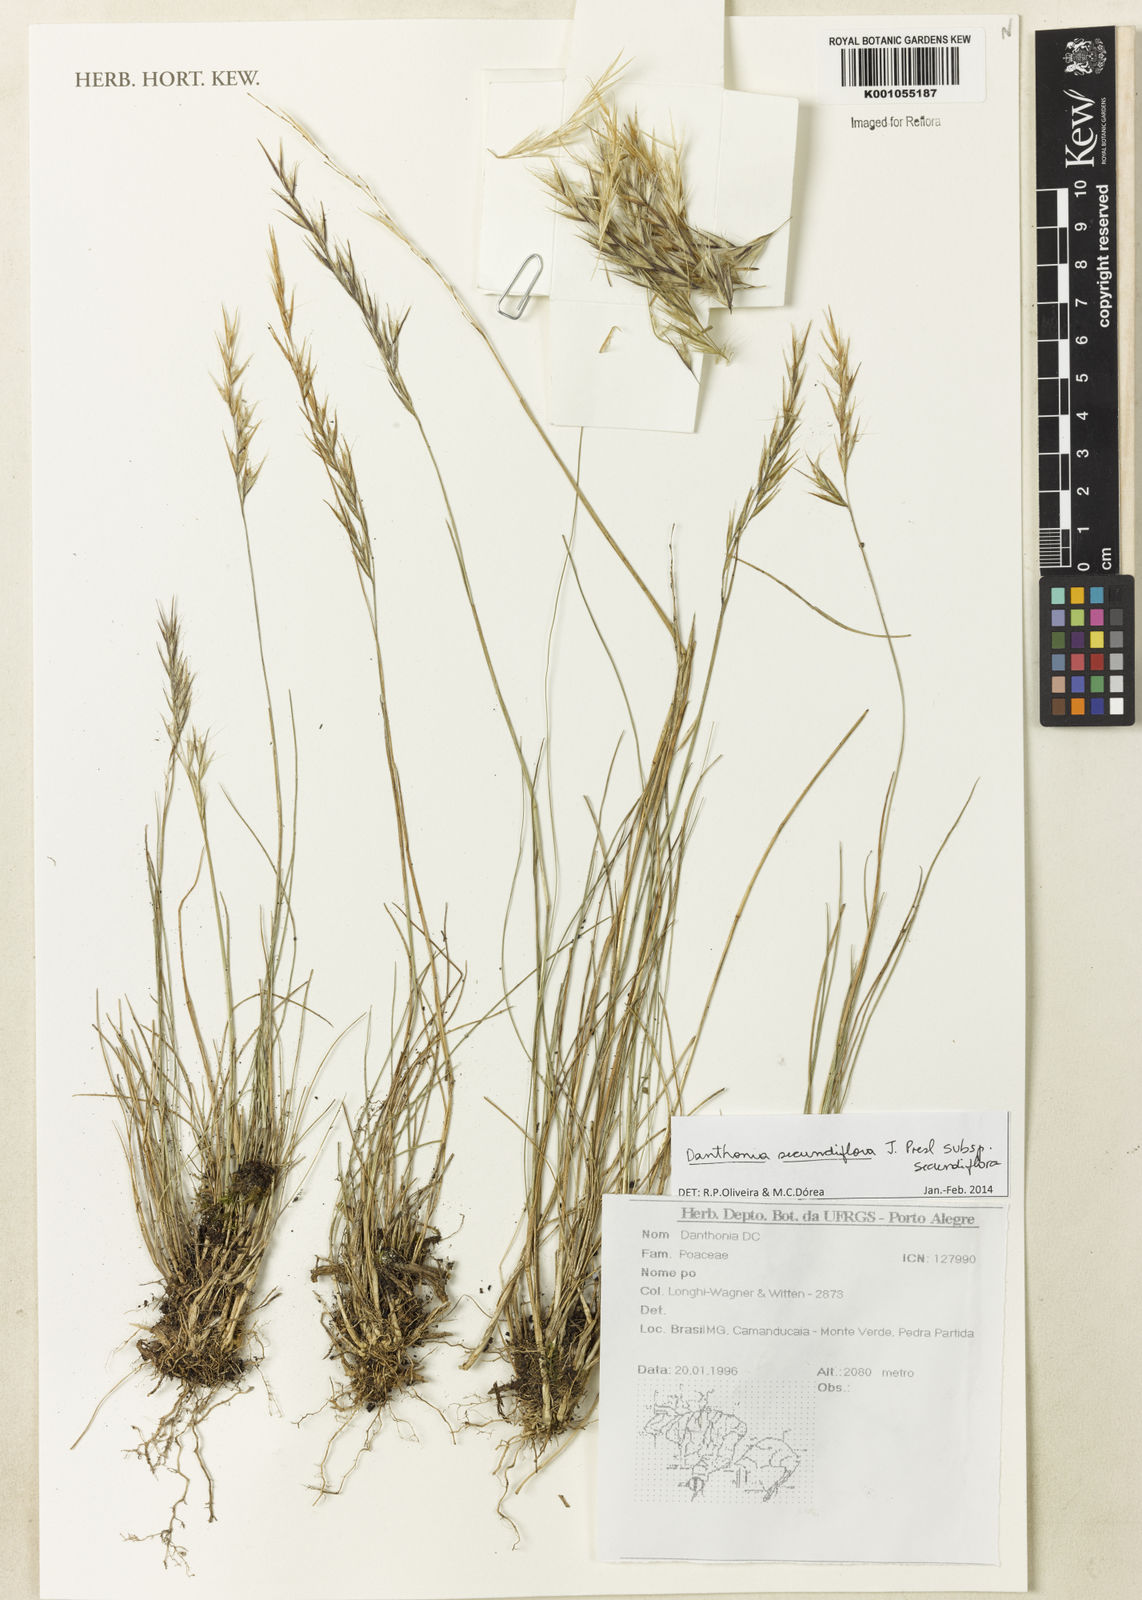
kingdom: Plantae
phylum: Tracheophyta
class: Liliopsida
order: Poales
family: Poaceae
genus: Danthonia
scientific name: Danthonia secundiflora
